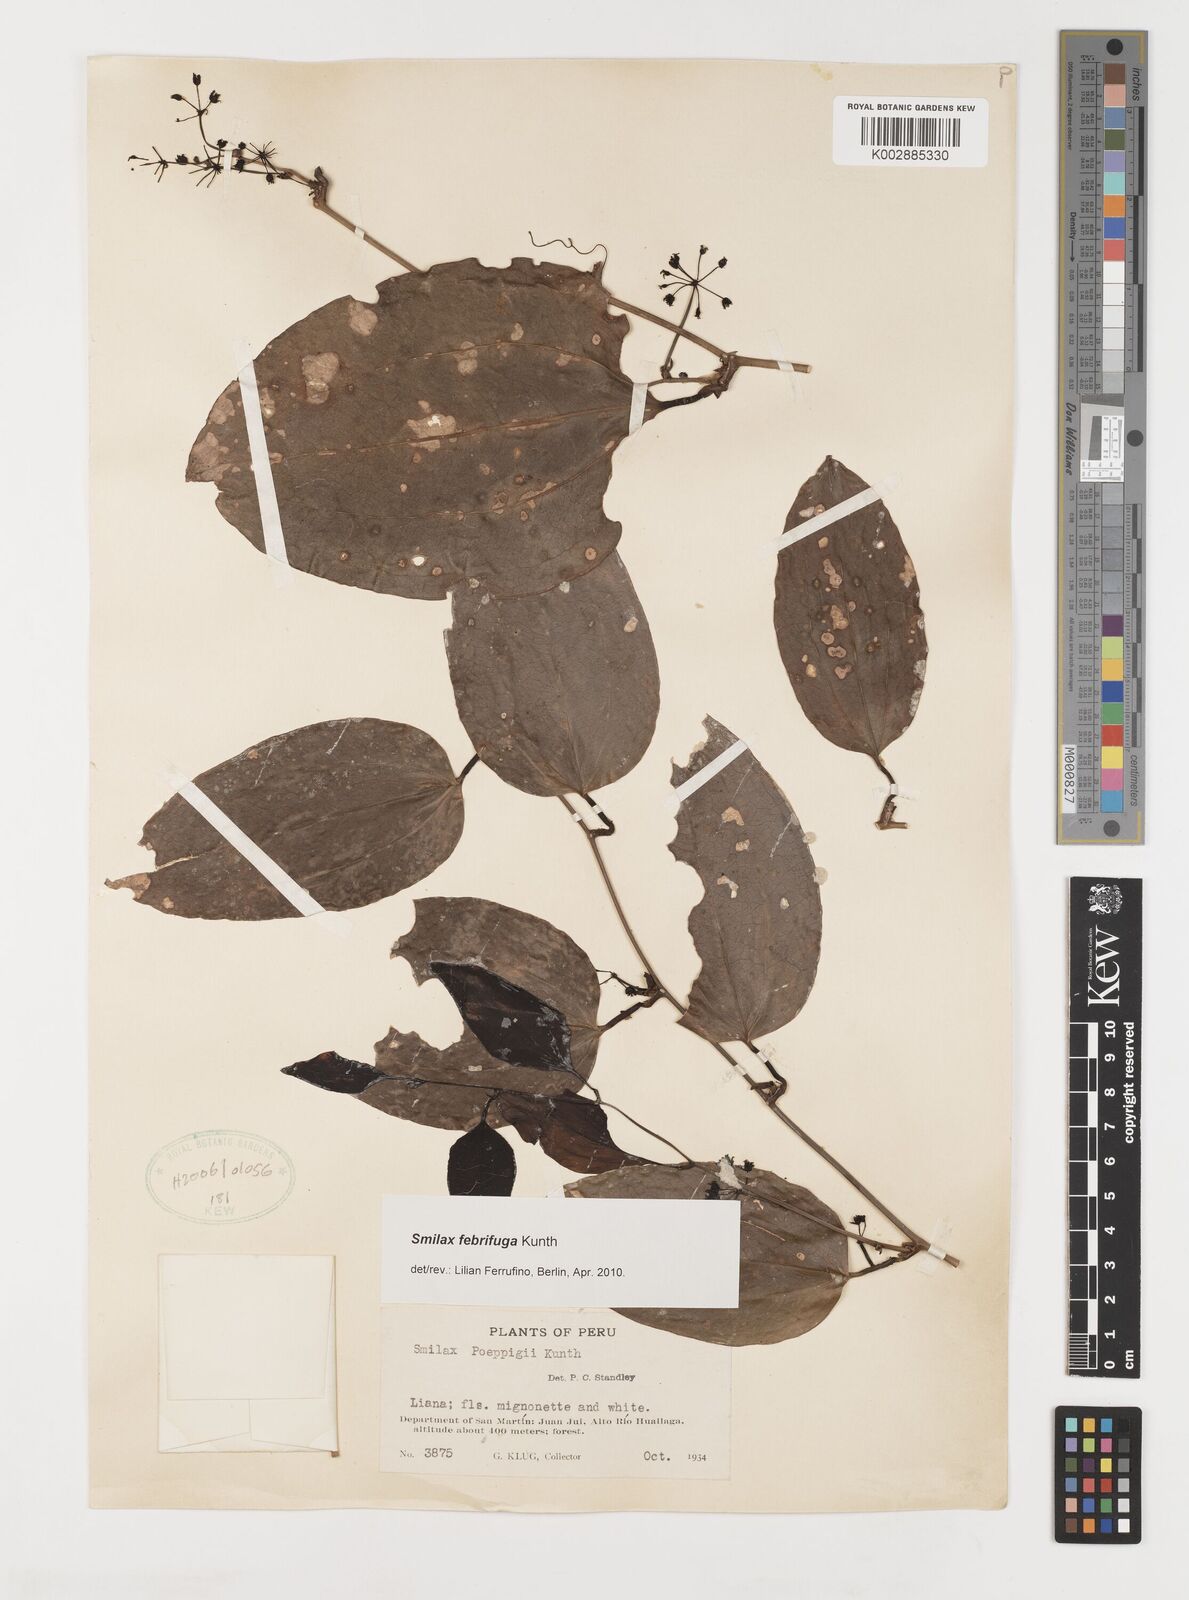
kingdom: Plantae
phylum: Tracheophyta
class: Liliopsida
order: Liliales
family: Smilacaceae
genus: Smilax
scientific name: Smilax purhampuy
